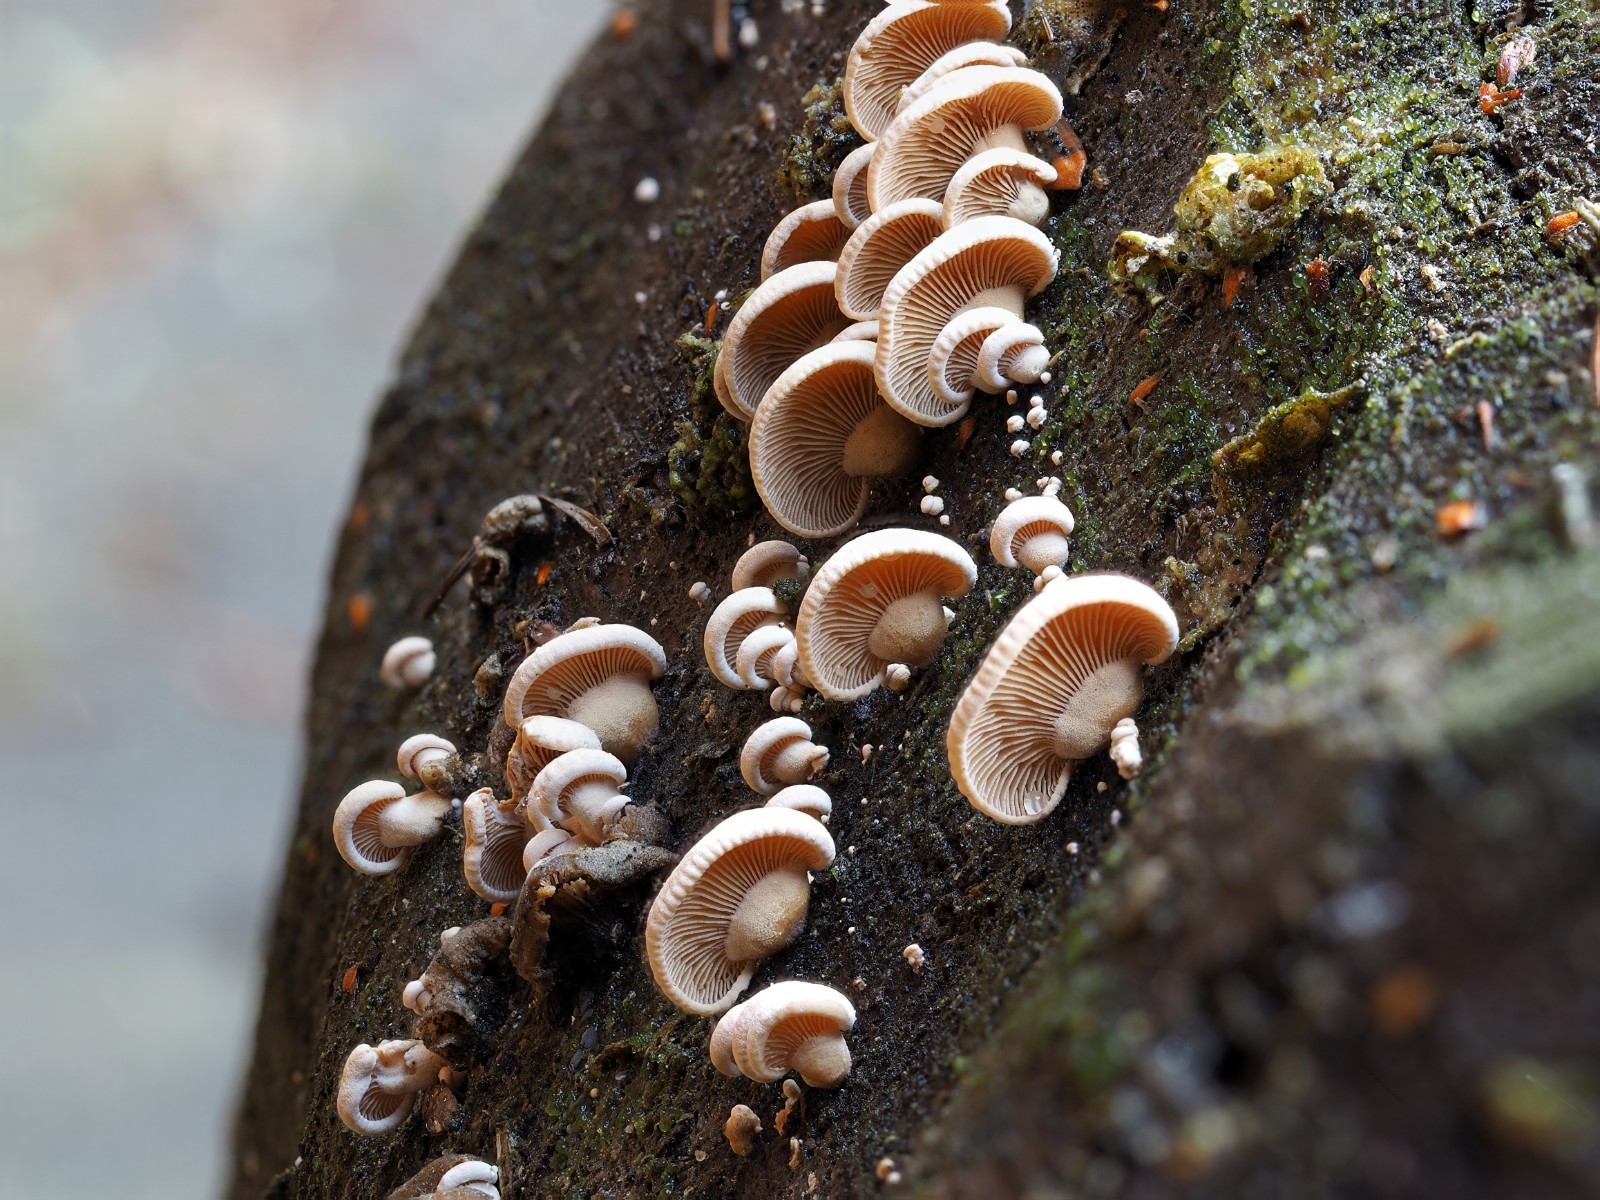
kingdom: Fungi
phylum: Basidiomycota
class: Agaricomycetes
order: Agaricales
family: Mycenaceae
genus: Panellus
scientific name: Panellus stipticus
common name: kliddet epaulethat
